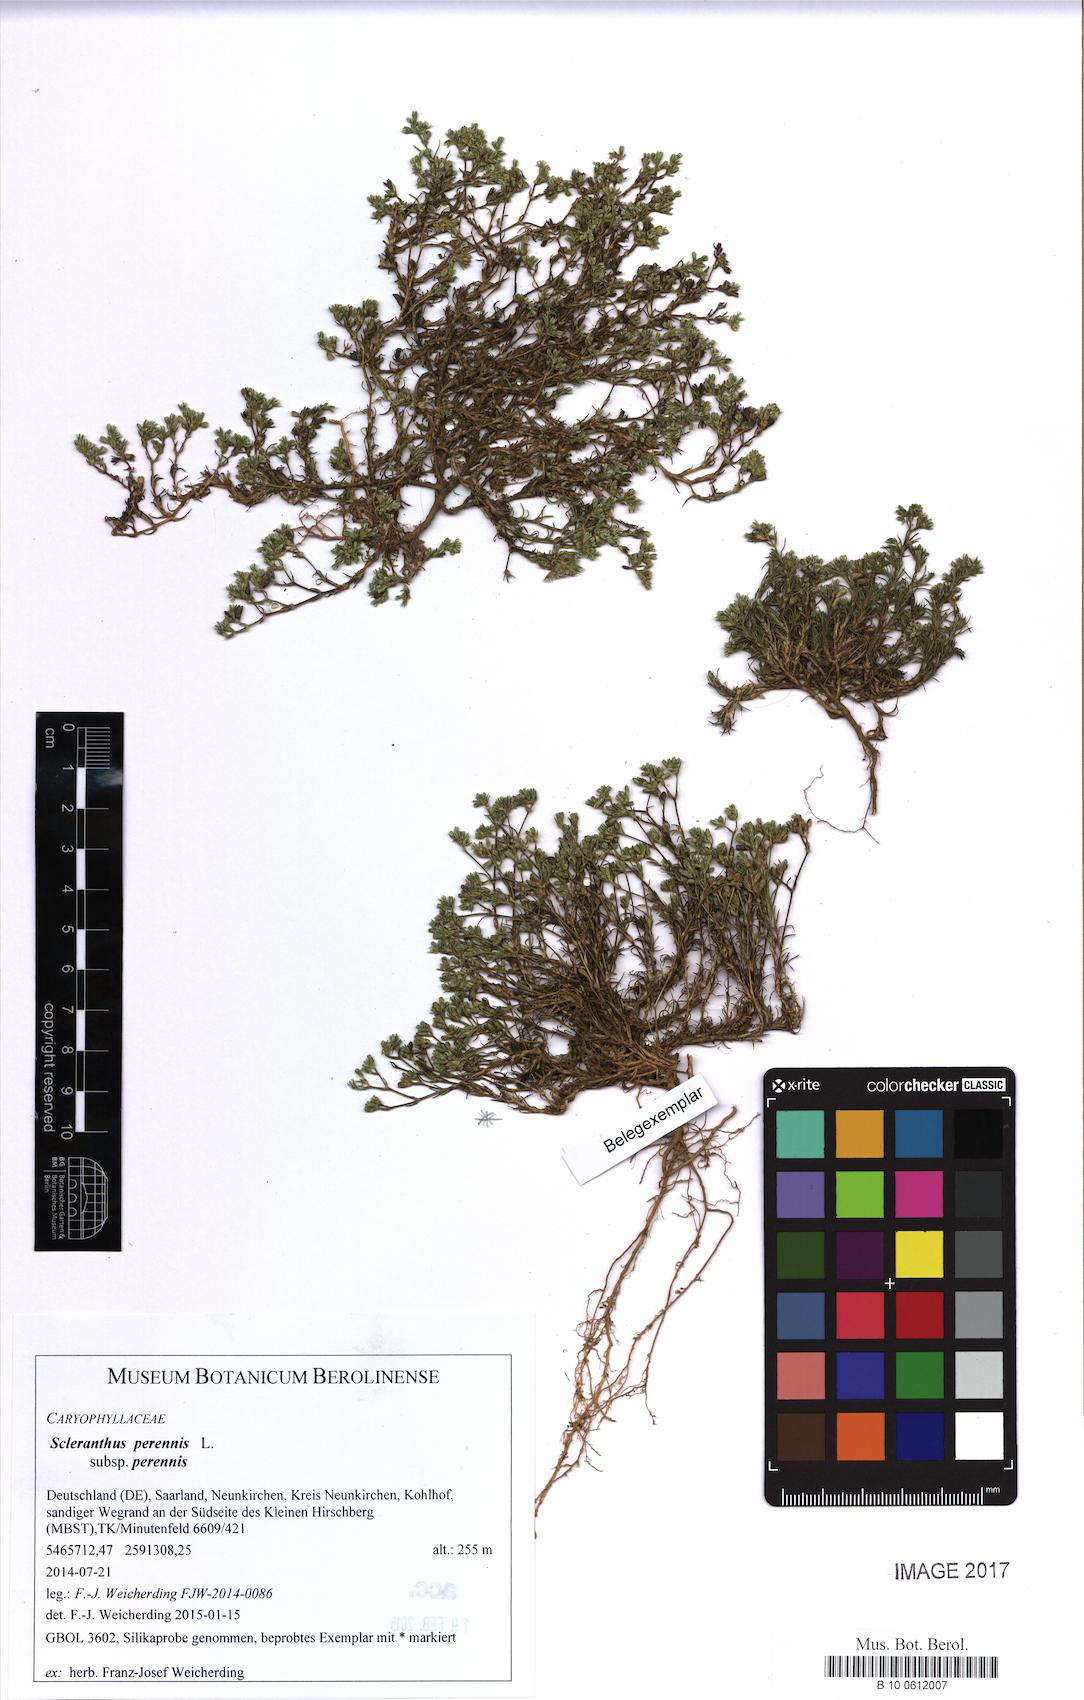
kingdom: Plantae
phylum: Tracheophyta
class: Magnoliopsida
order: Caryophyllales
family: Caryophyllaceae
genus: Scleranthus
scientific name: Scleranthus perennis
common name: Perennial knawel
